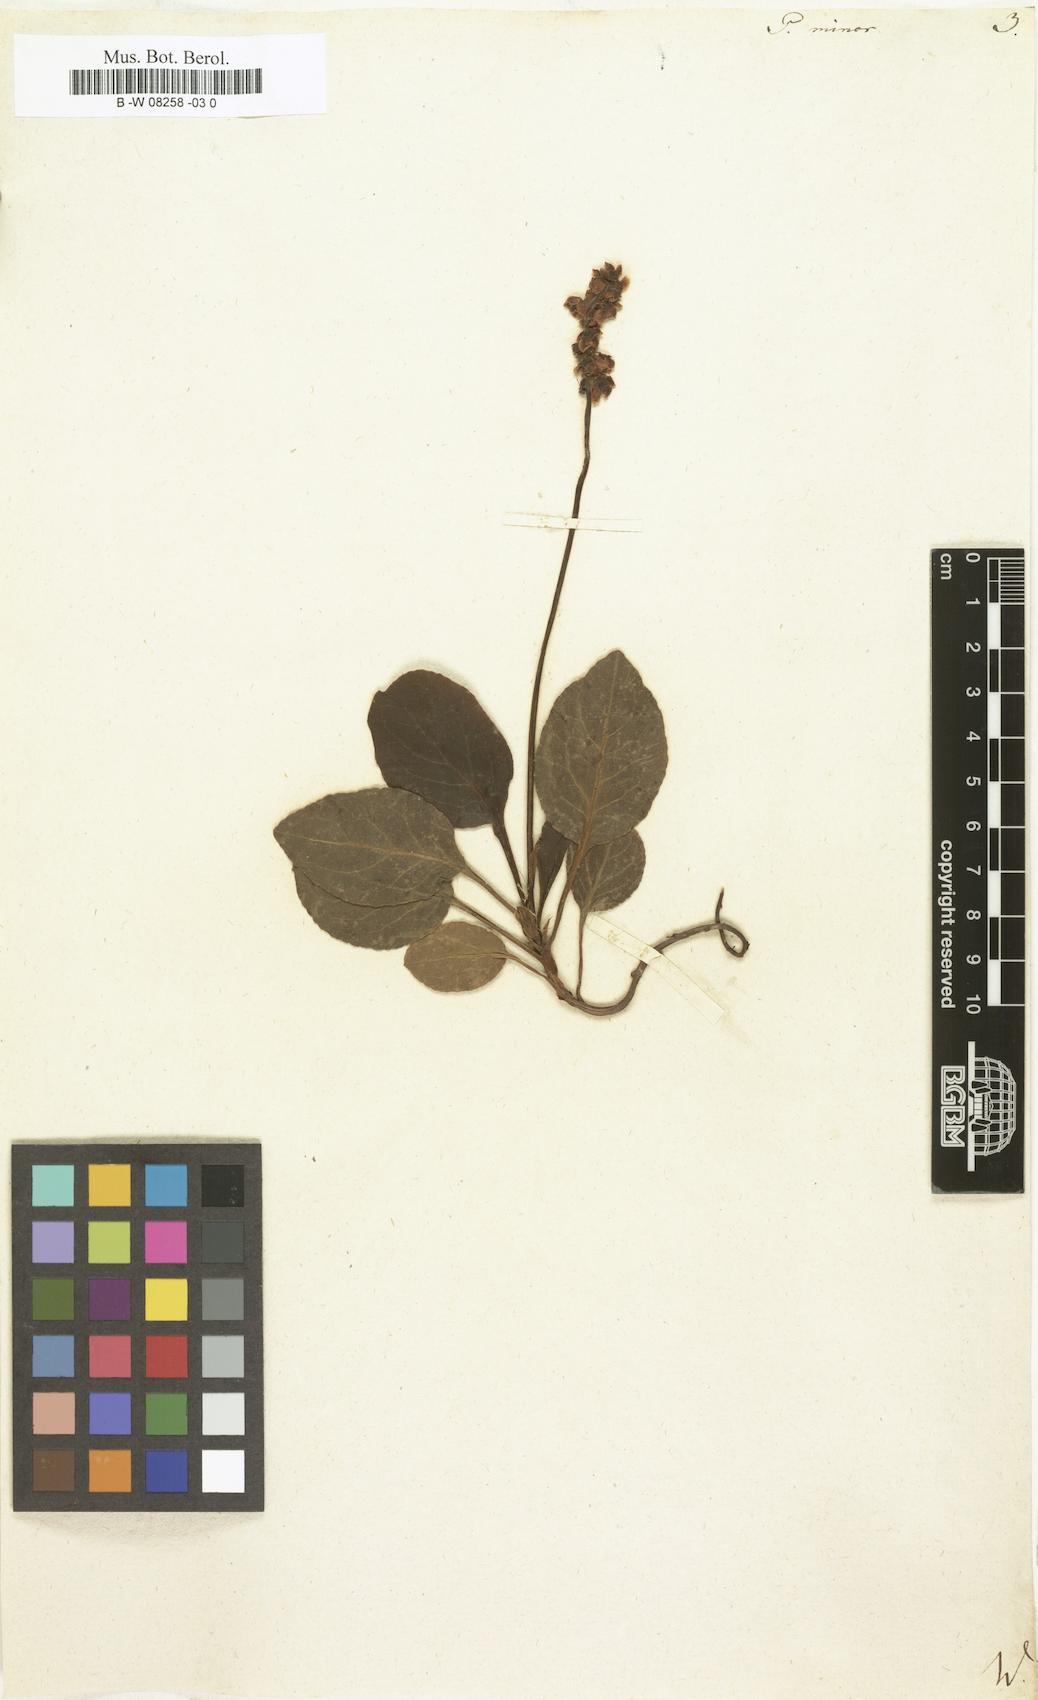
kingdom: Plantae
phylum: Tracheophyta
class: Magnoliopsida
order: Ericales
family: Ericaceae
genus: Pyrola
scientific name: Pyrola minor
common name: Common wintergreen
